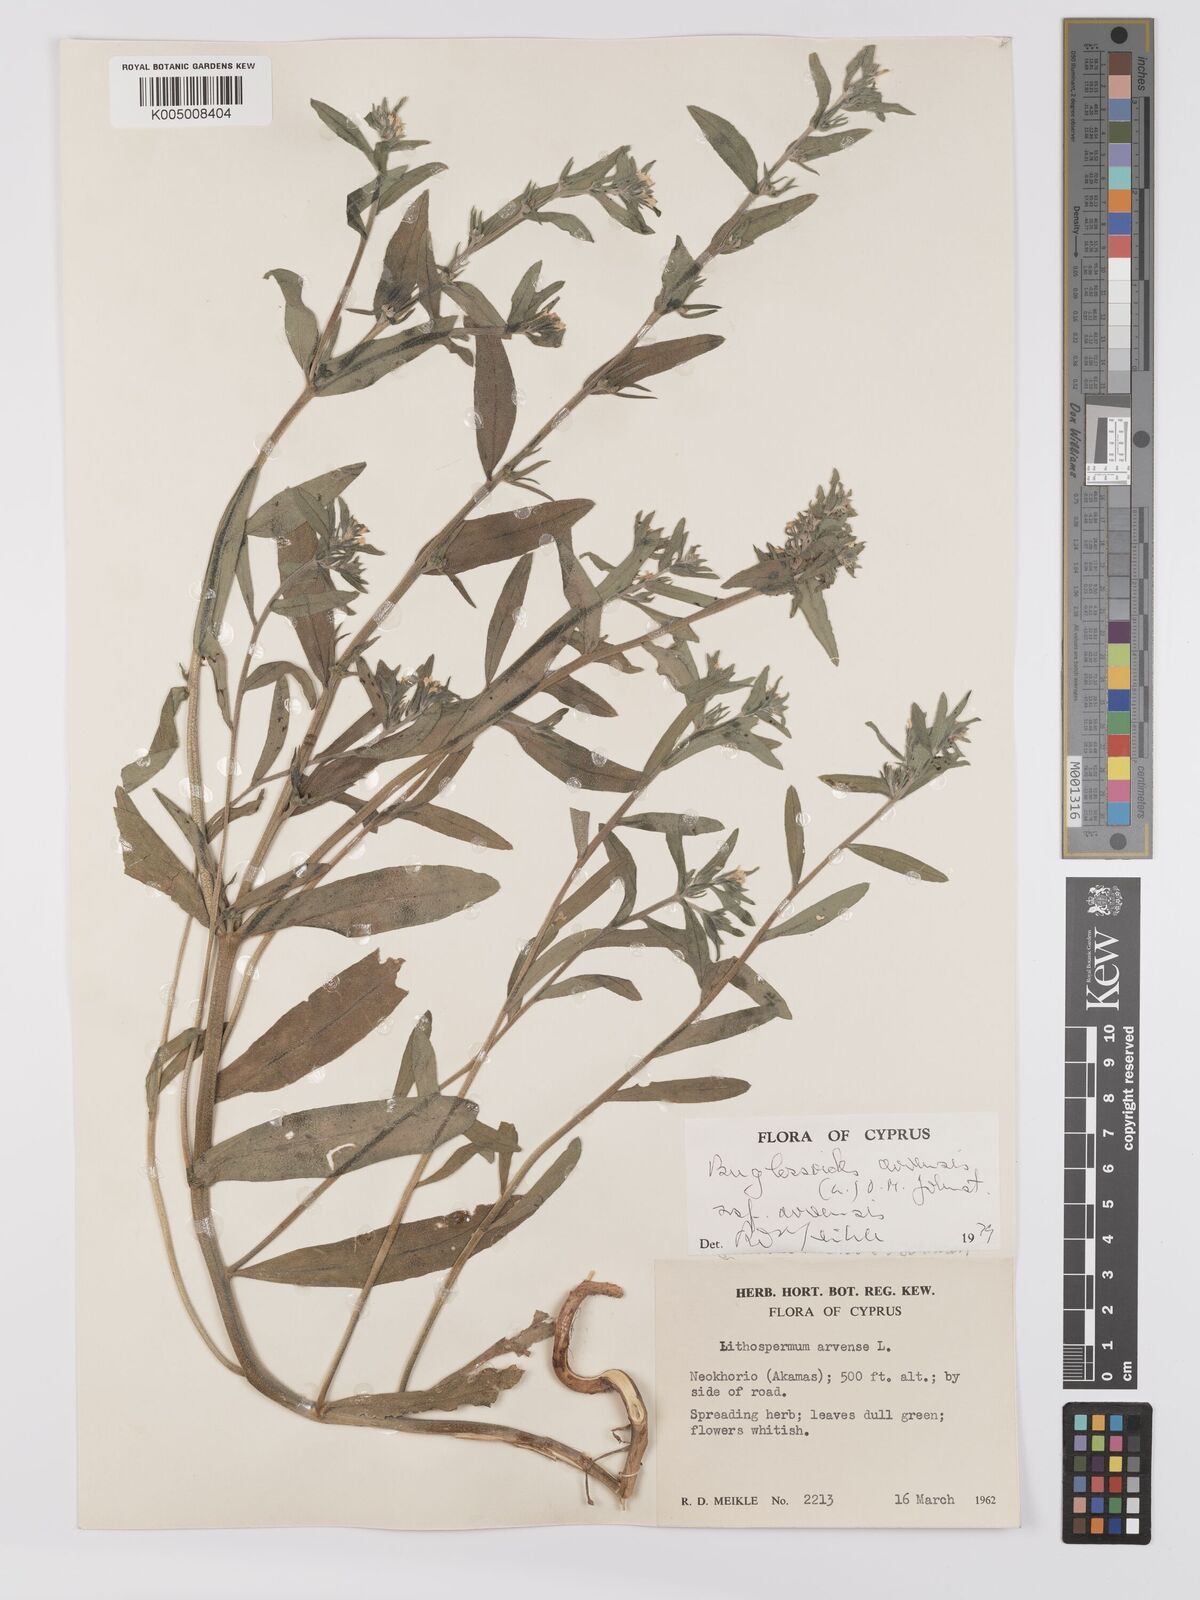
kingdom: Plantae
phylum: Tracheophyta
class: Magnoliopsida
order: Boraginales
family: Boraginaceae
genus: Buglossoides
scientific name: Buglossoides arvensis
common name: Corn gromwell
